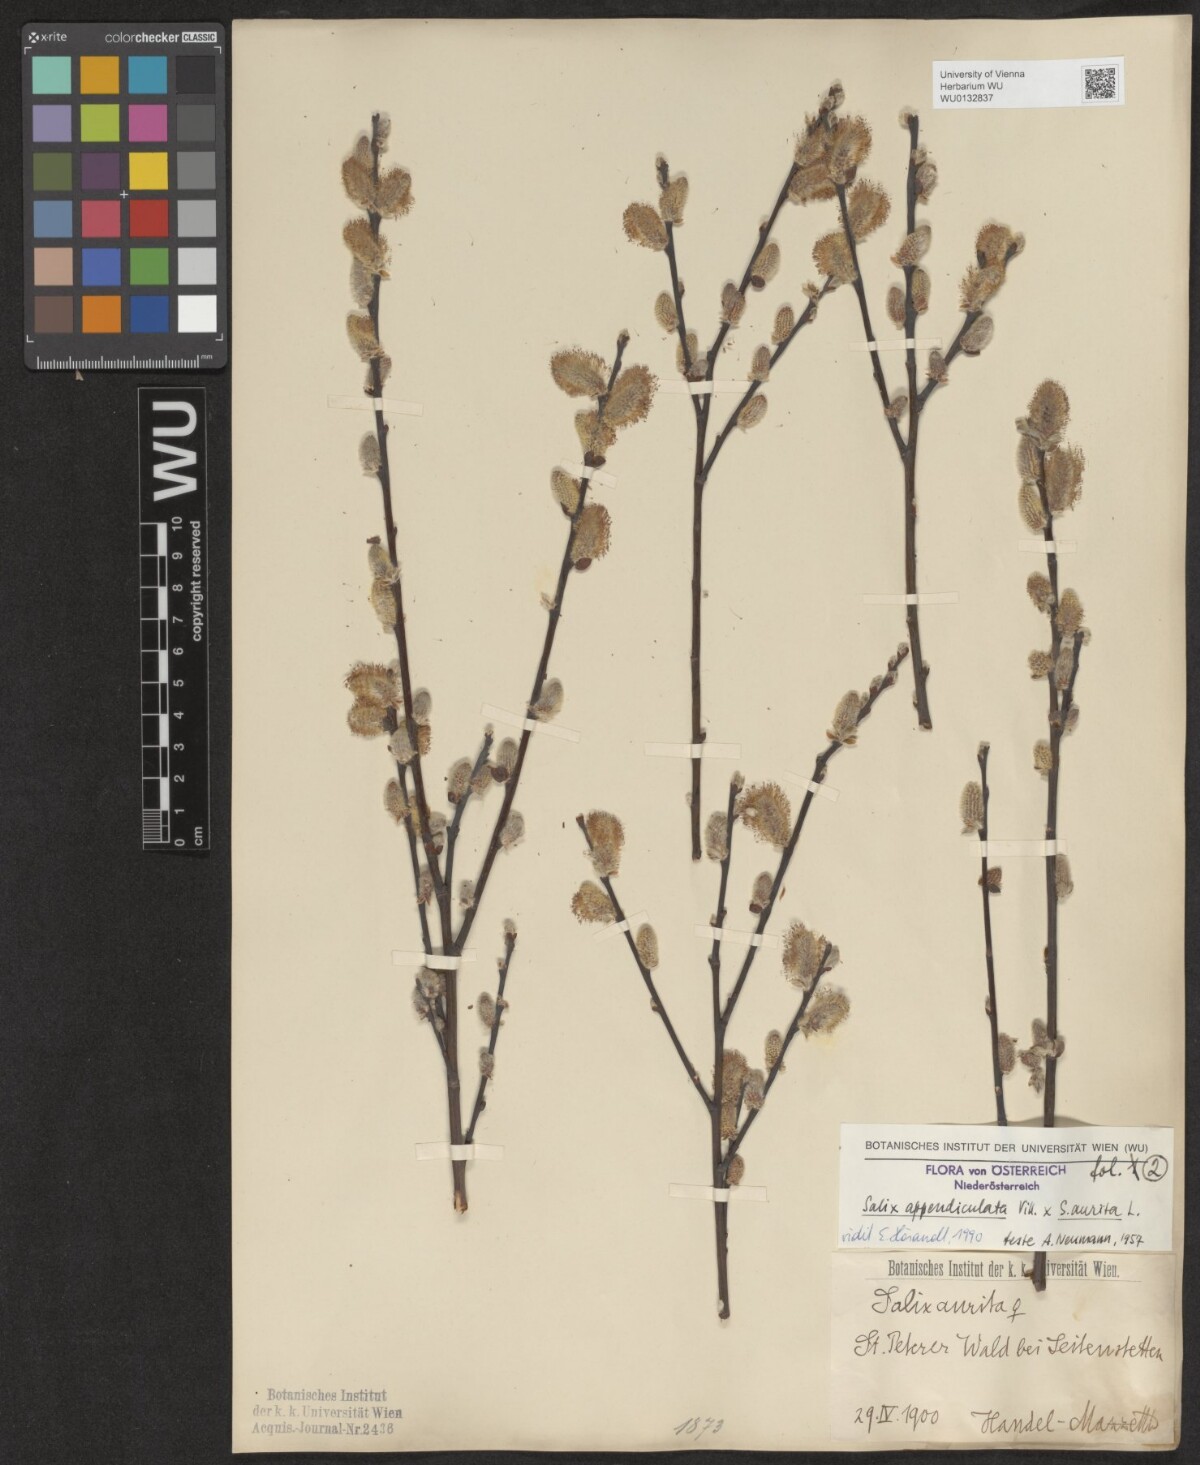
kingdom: Plantae
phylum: Tracheophyta
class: Magnoliopsida
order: Malpighiales
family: Salicaceae
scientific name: Salicaceae
